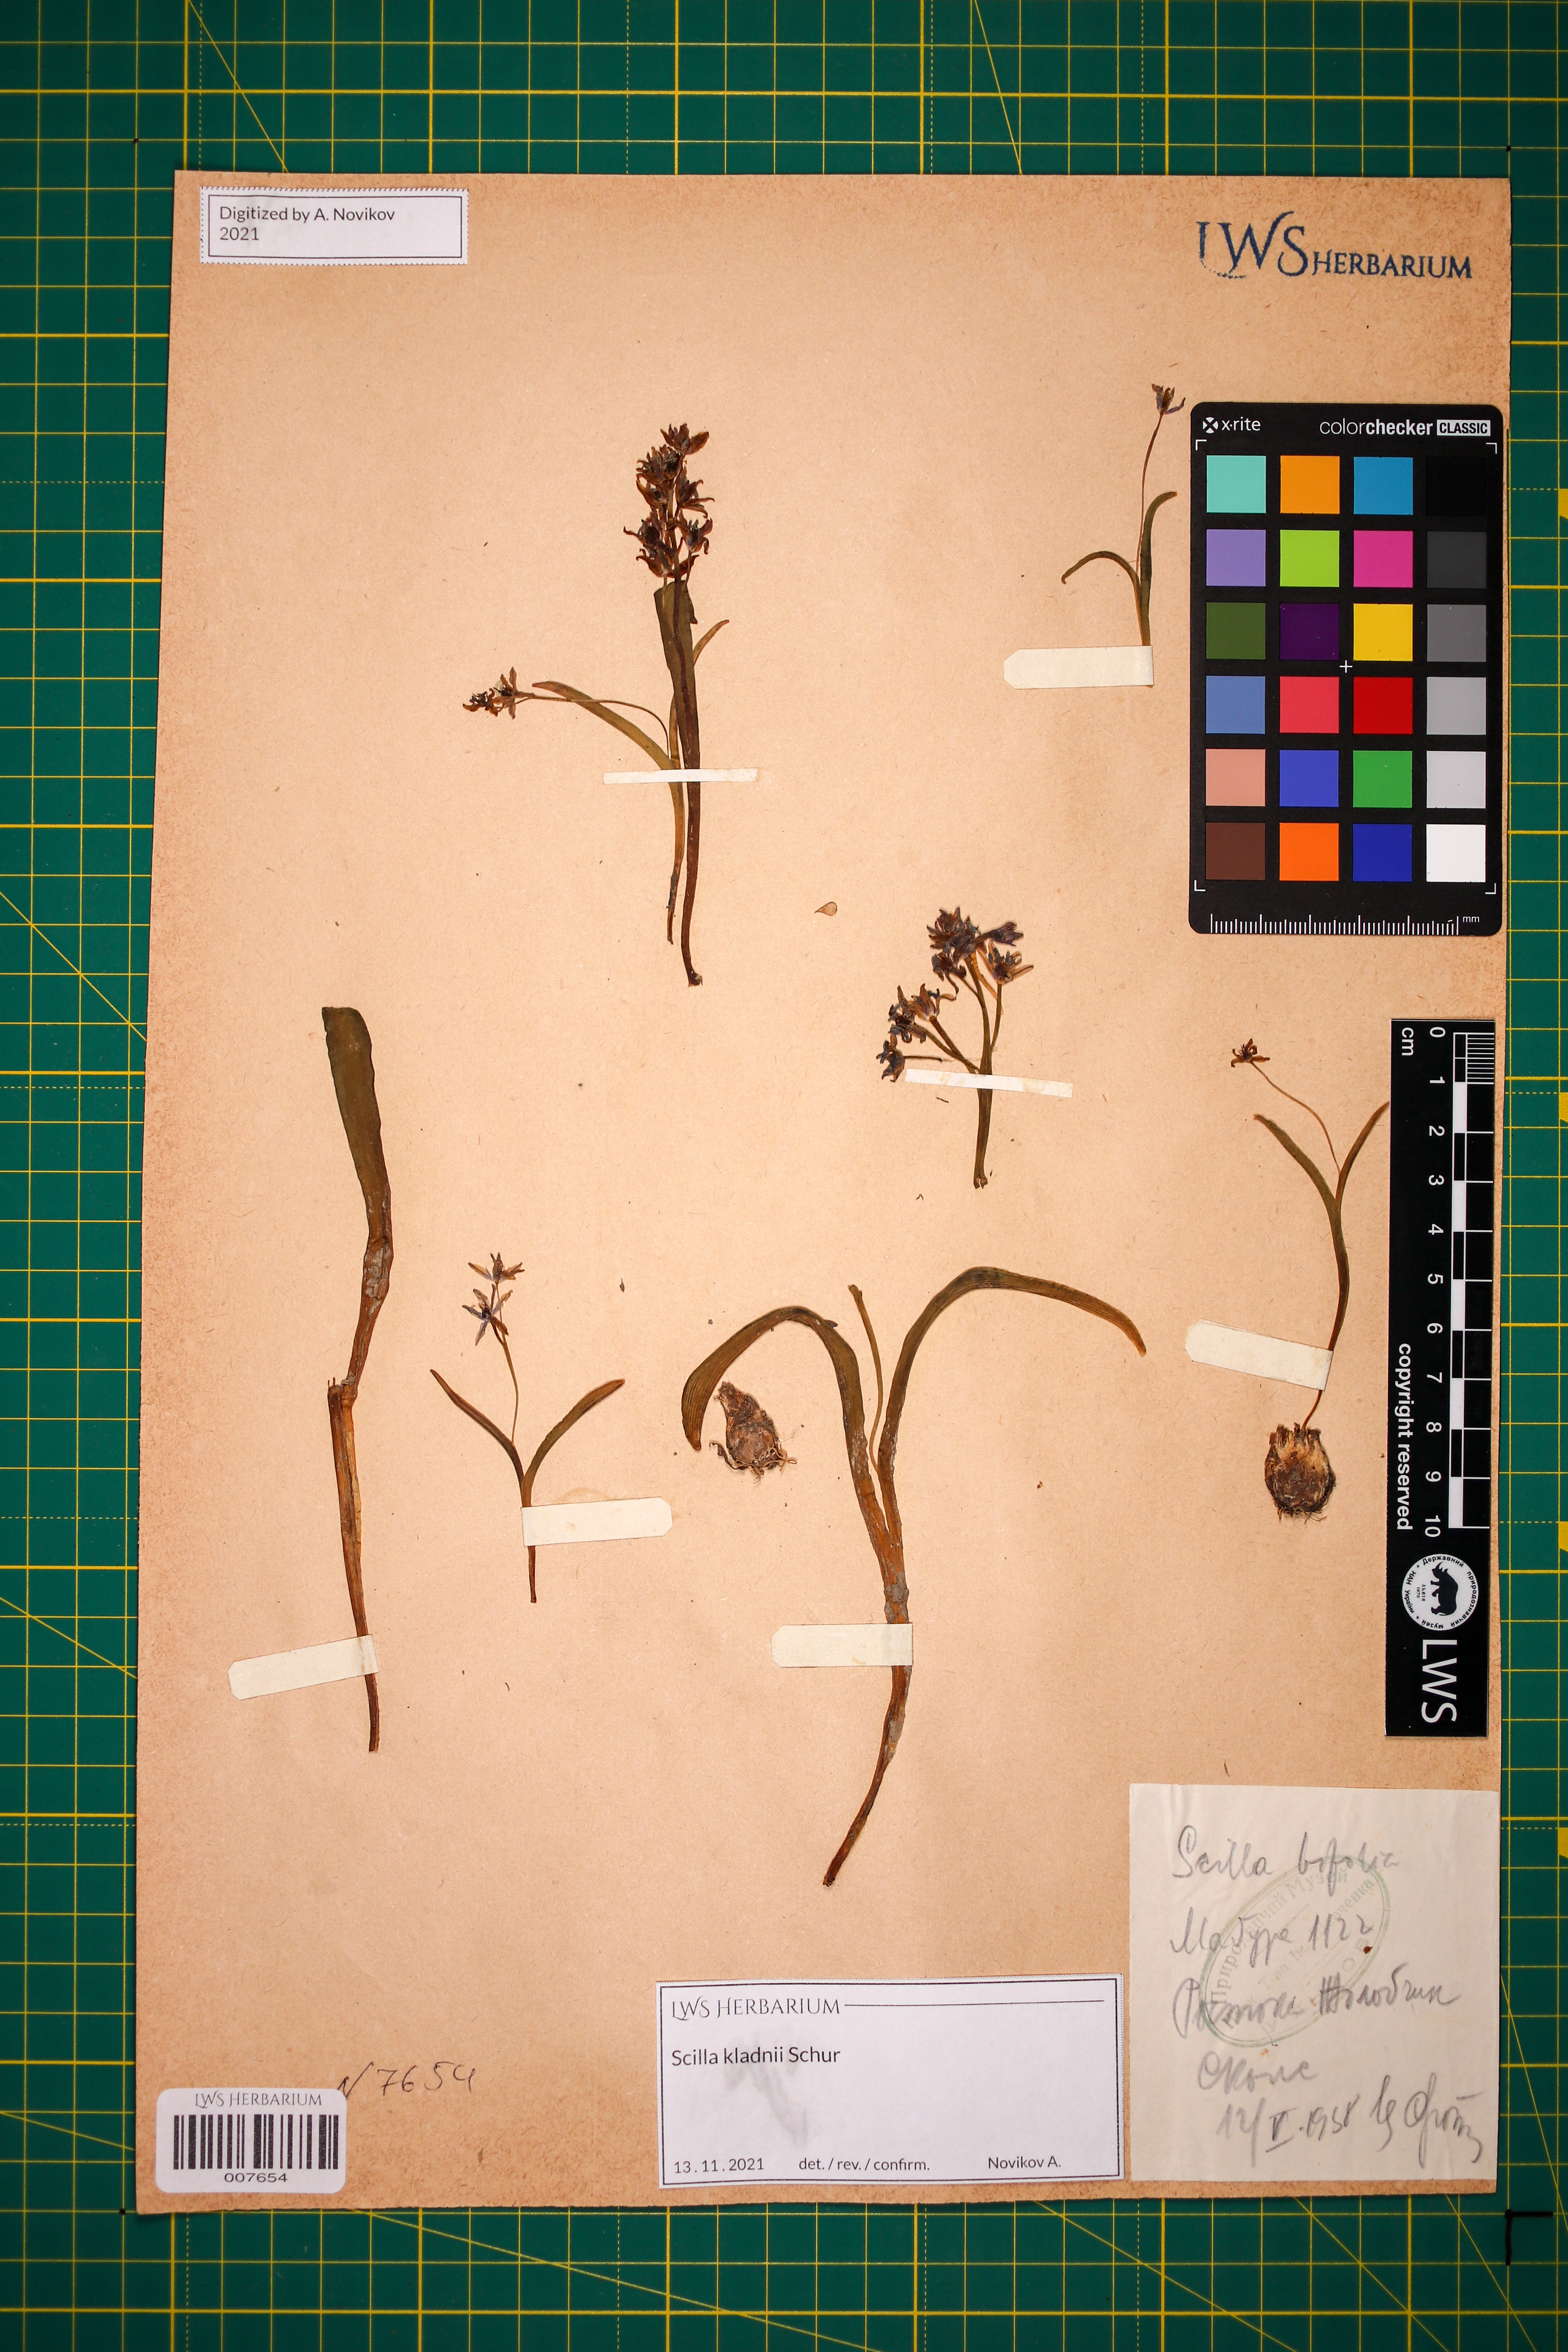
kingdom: Plantae
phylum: Tracheophyta
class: Liliopsida
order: Asparagales
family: Asparagaceae
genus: Scilla
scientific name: Scilla kladnii
